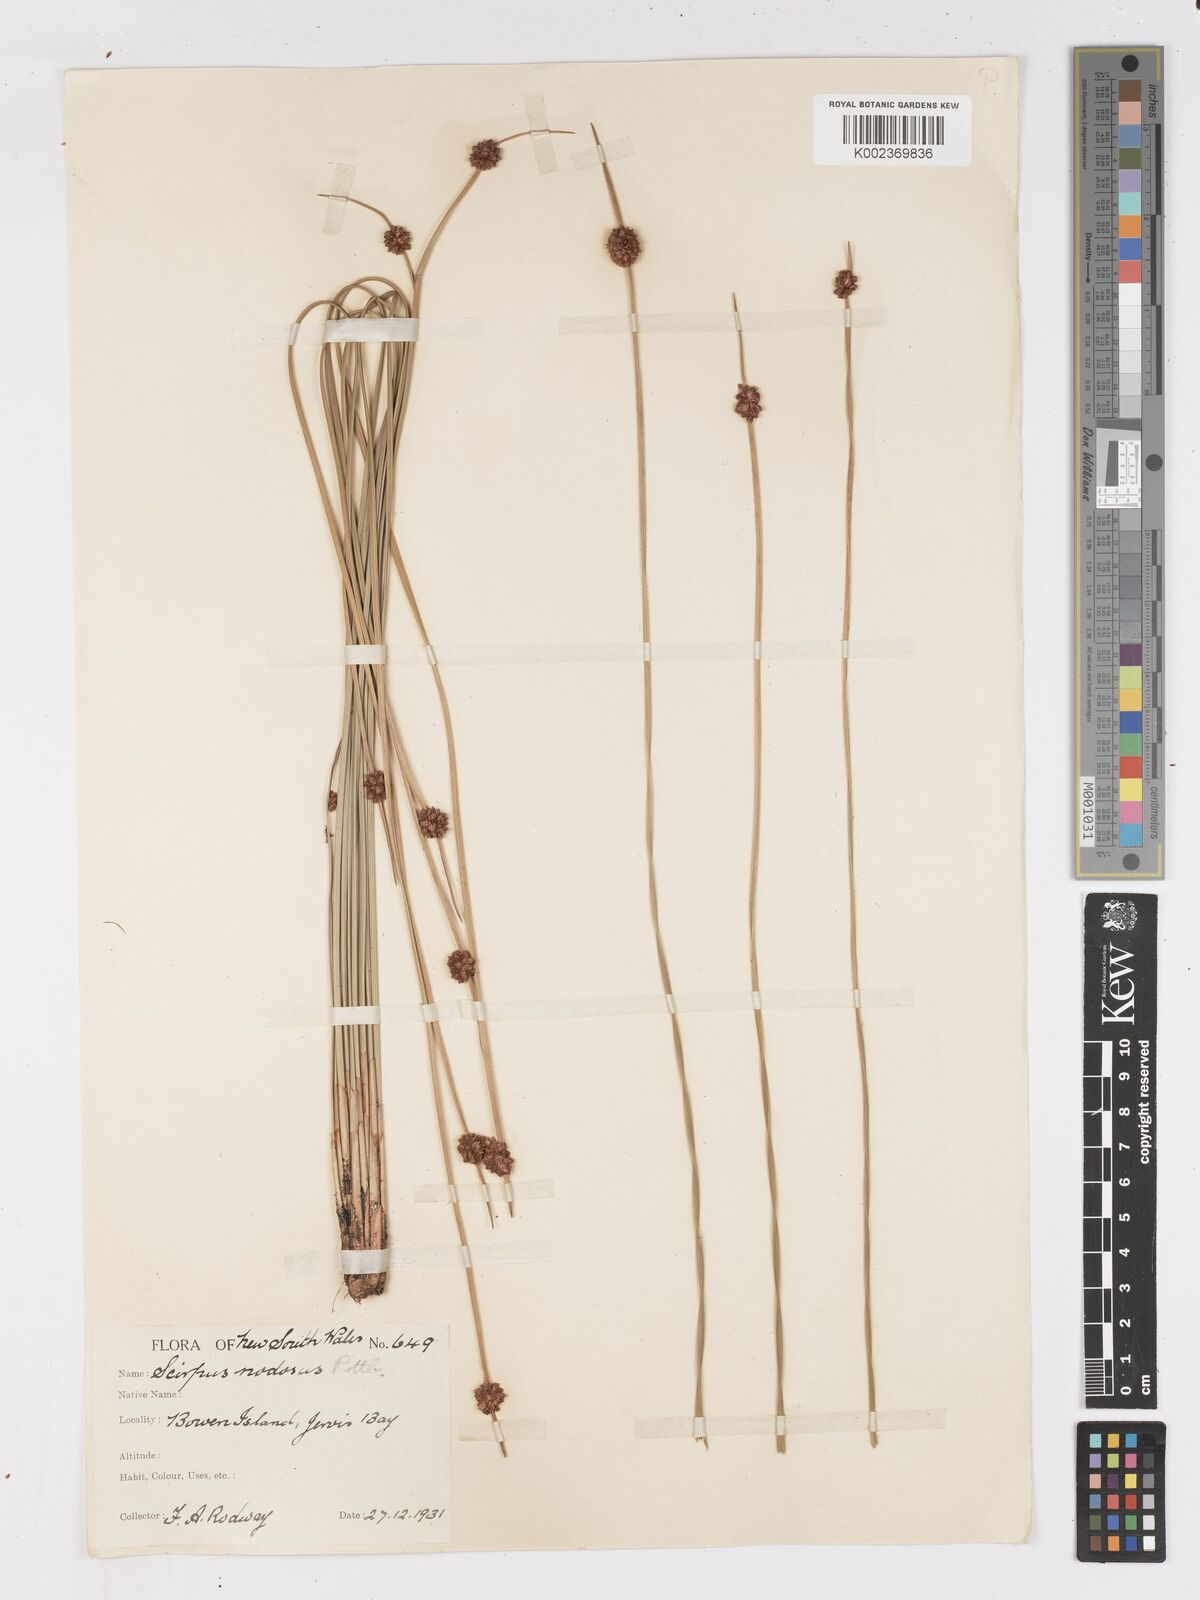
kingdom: Plantae
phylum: Tracheophyta
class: Liliopsida
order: Poales
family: Cyperaceae
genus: Ficinia
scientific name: Ficinia nodosa
